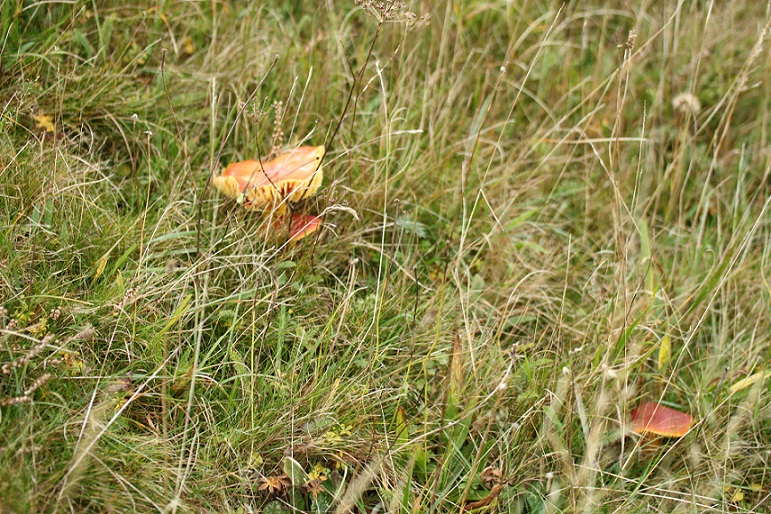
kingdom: Fungi
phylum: Basidiomycota
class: Agaricomycetes
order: Agaricales
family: Hygrophoraceae
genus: Hygrocybe
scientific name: Hygrocybe punicea
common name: skarlagen-vokshat
